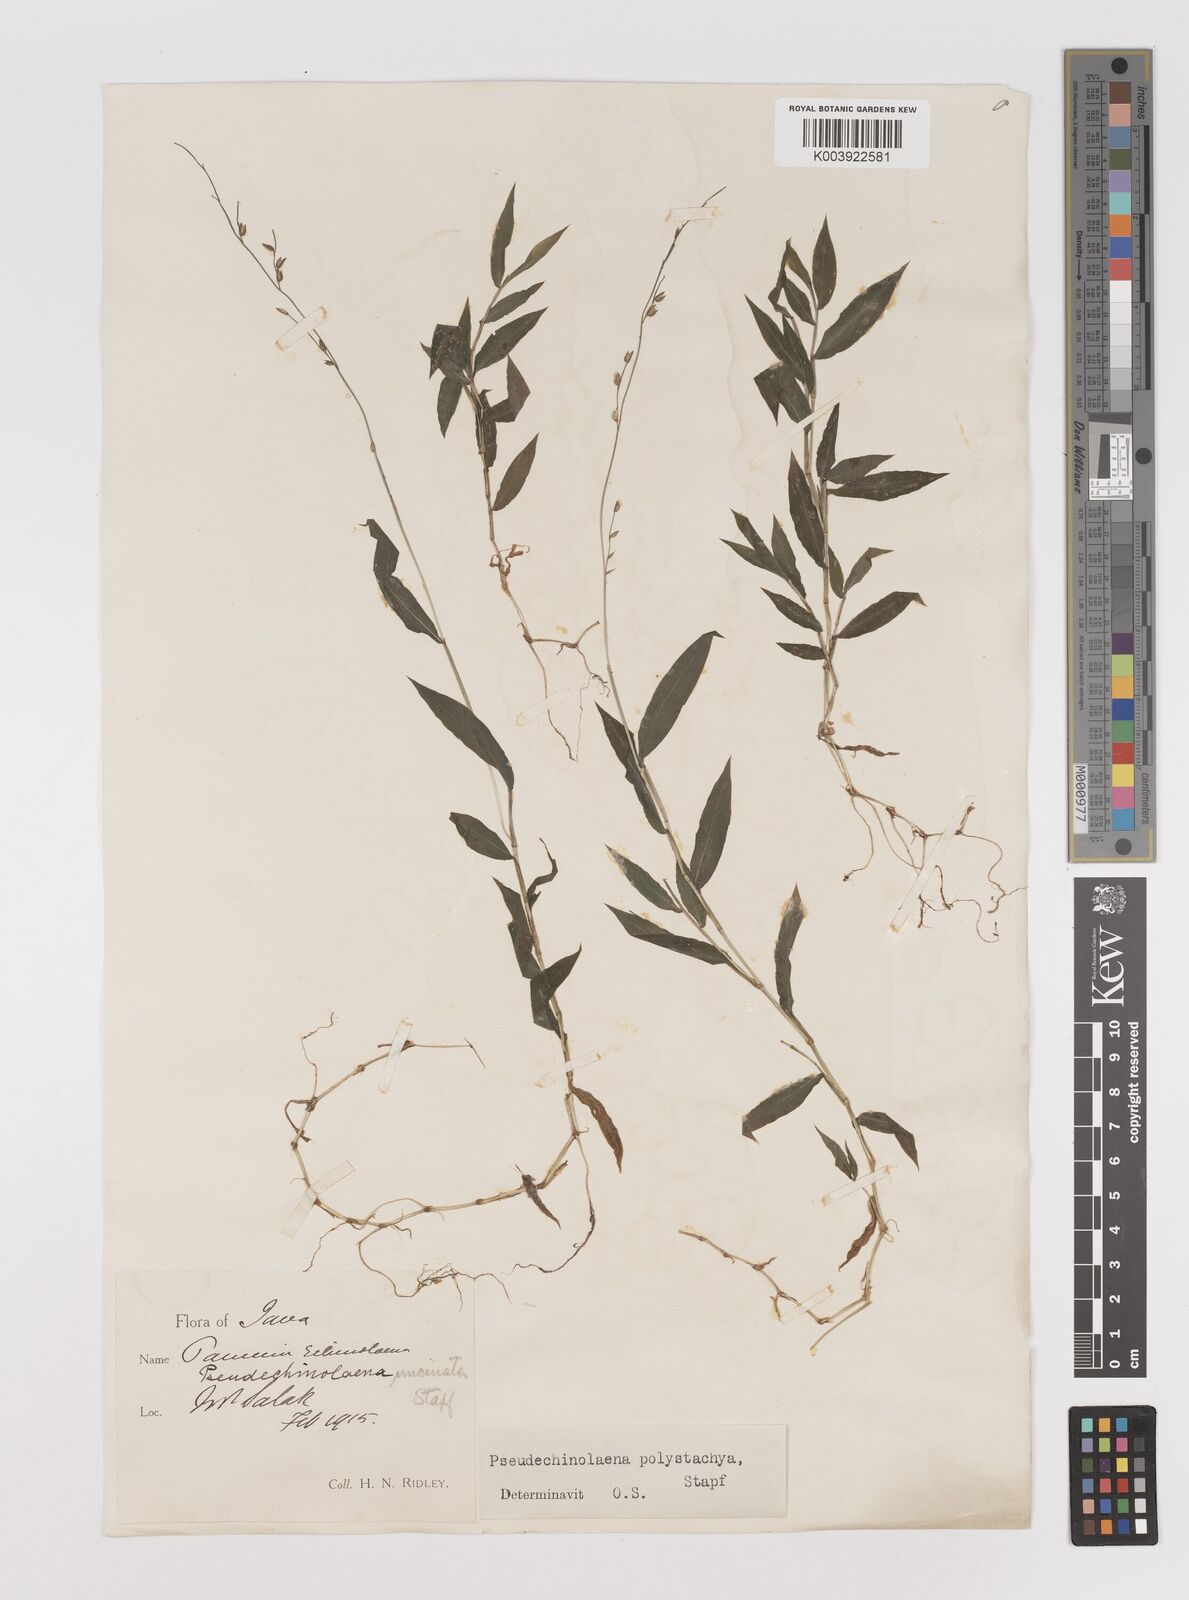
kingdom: Plantae
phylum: Tracheophyta
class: Liliopsida
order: Poales
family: Poaceae
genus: Pseudechinolaena
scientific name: Pseudechinolaena polystachya
